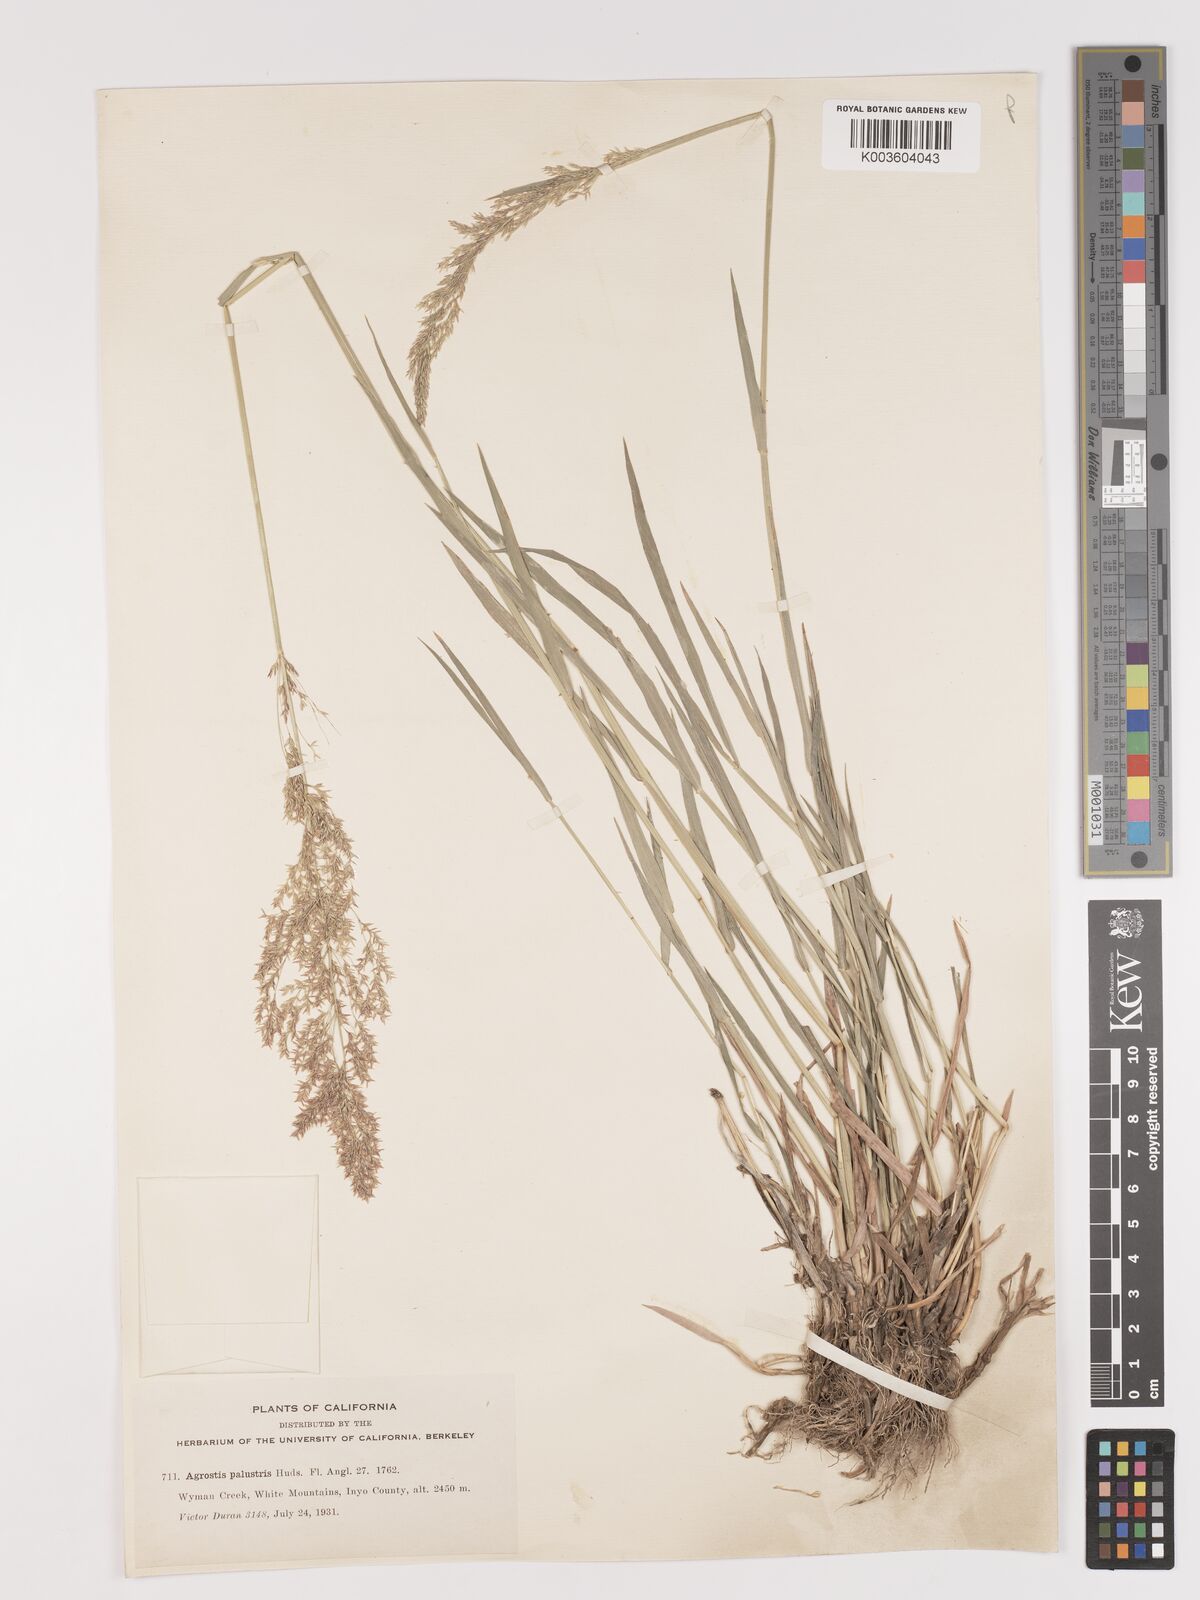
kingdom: Plantae
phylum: Tracheophyta
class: Liliopsida
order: Poales
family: Poaceae
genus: Agrostis
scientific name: Agrostis gigantea
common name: Black bent
